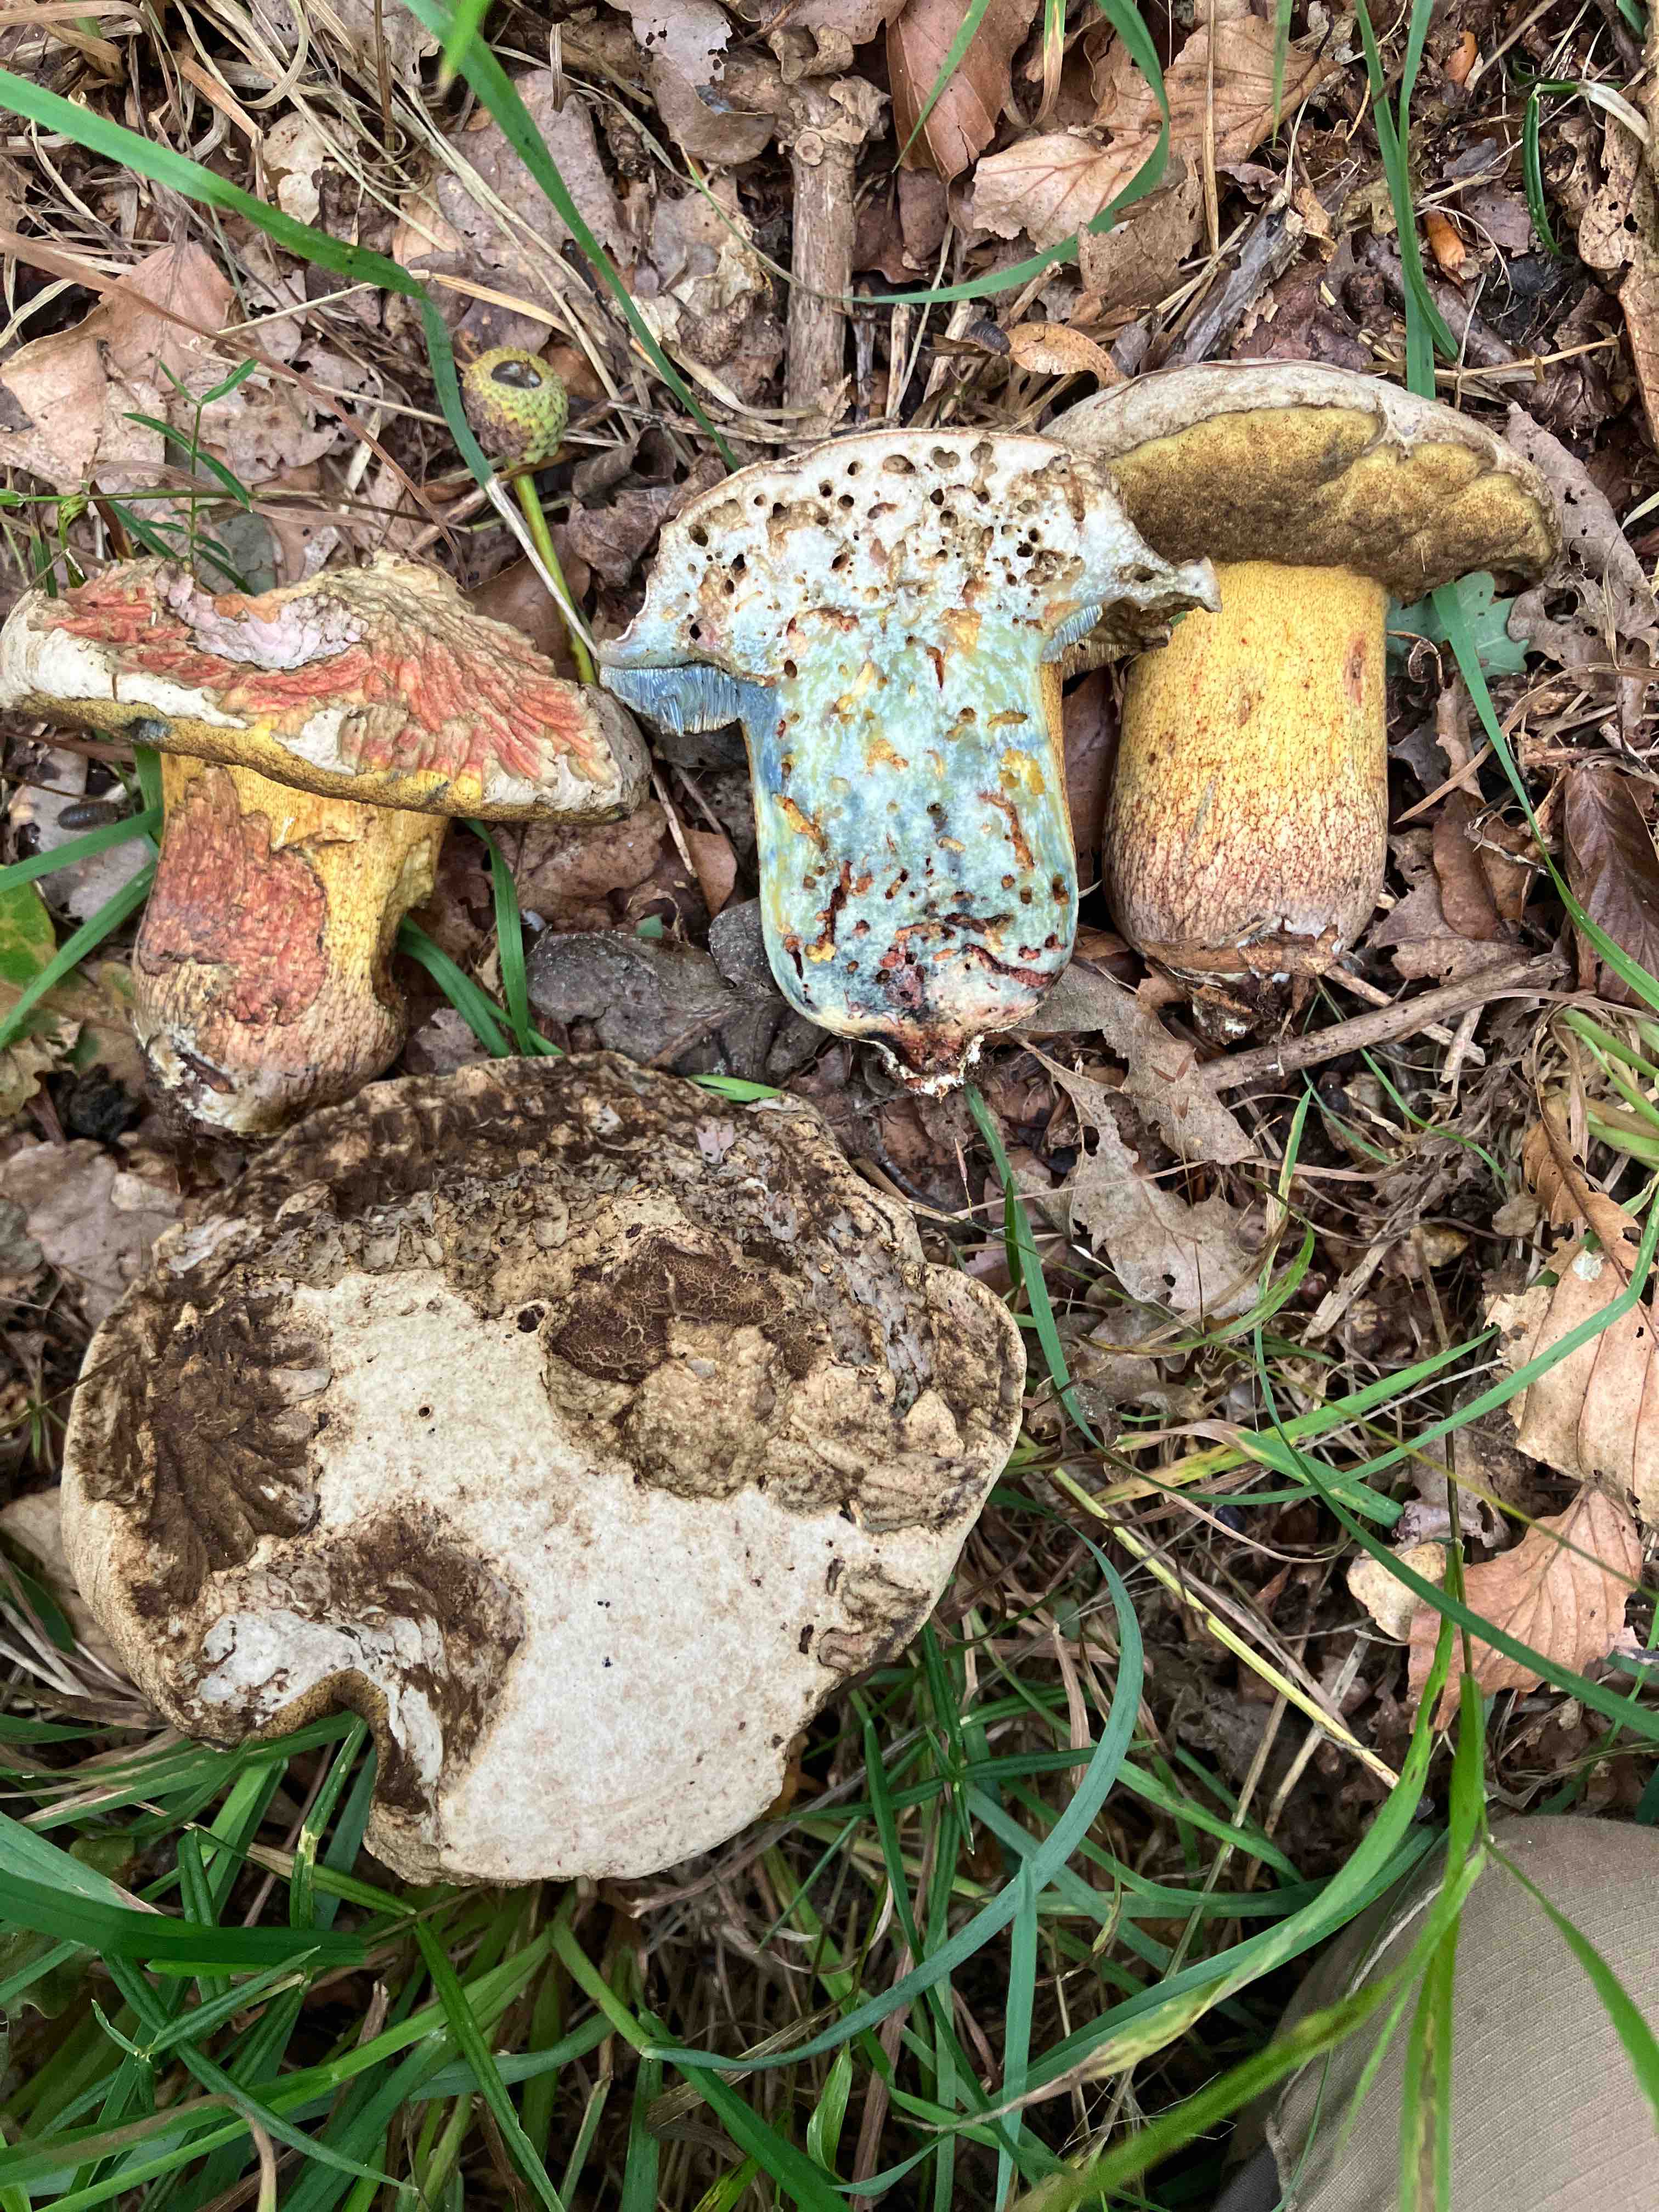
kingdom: Fungi
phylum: Basidiomycota
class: Agaricomycetes
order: Boletales
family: Boletaceae
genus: Caloboletus
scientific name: Caloboletus radicans
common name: rod-rørhat
